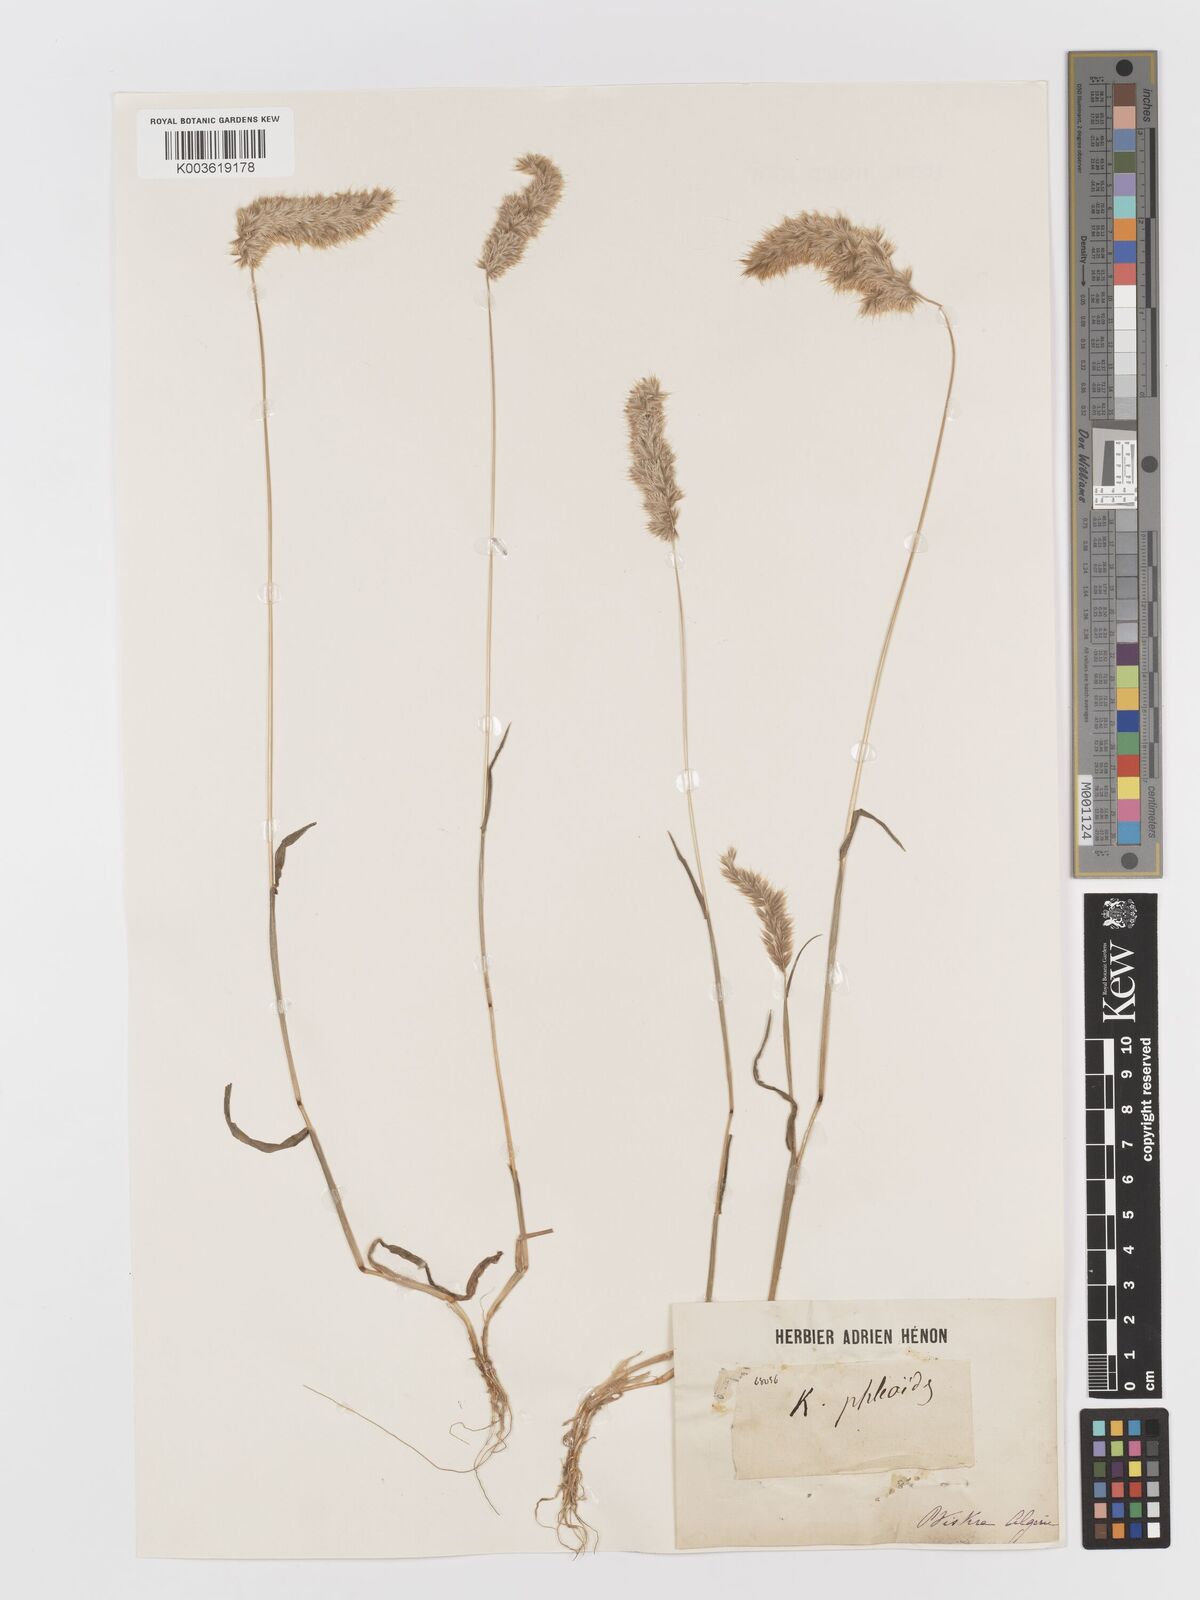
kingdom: Plantae
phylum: Tracheophyta
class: Liliopsida
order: Poales
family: Poaceae
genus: Rostraria
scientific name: Rostraria cristata
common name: Mediterranean hair-grass
